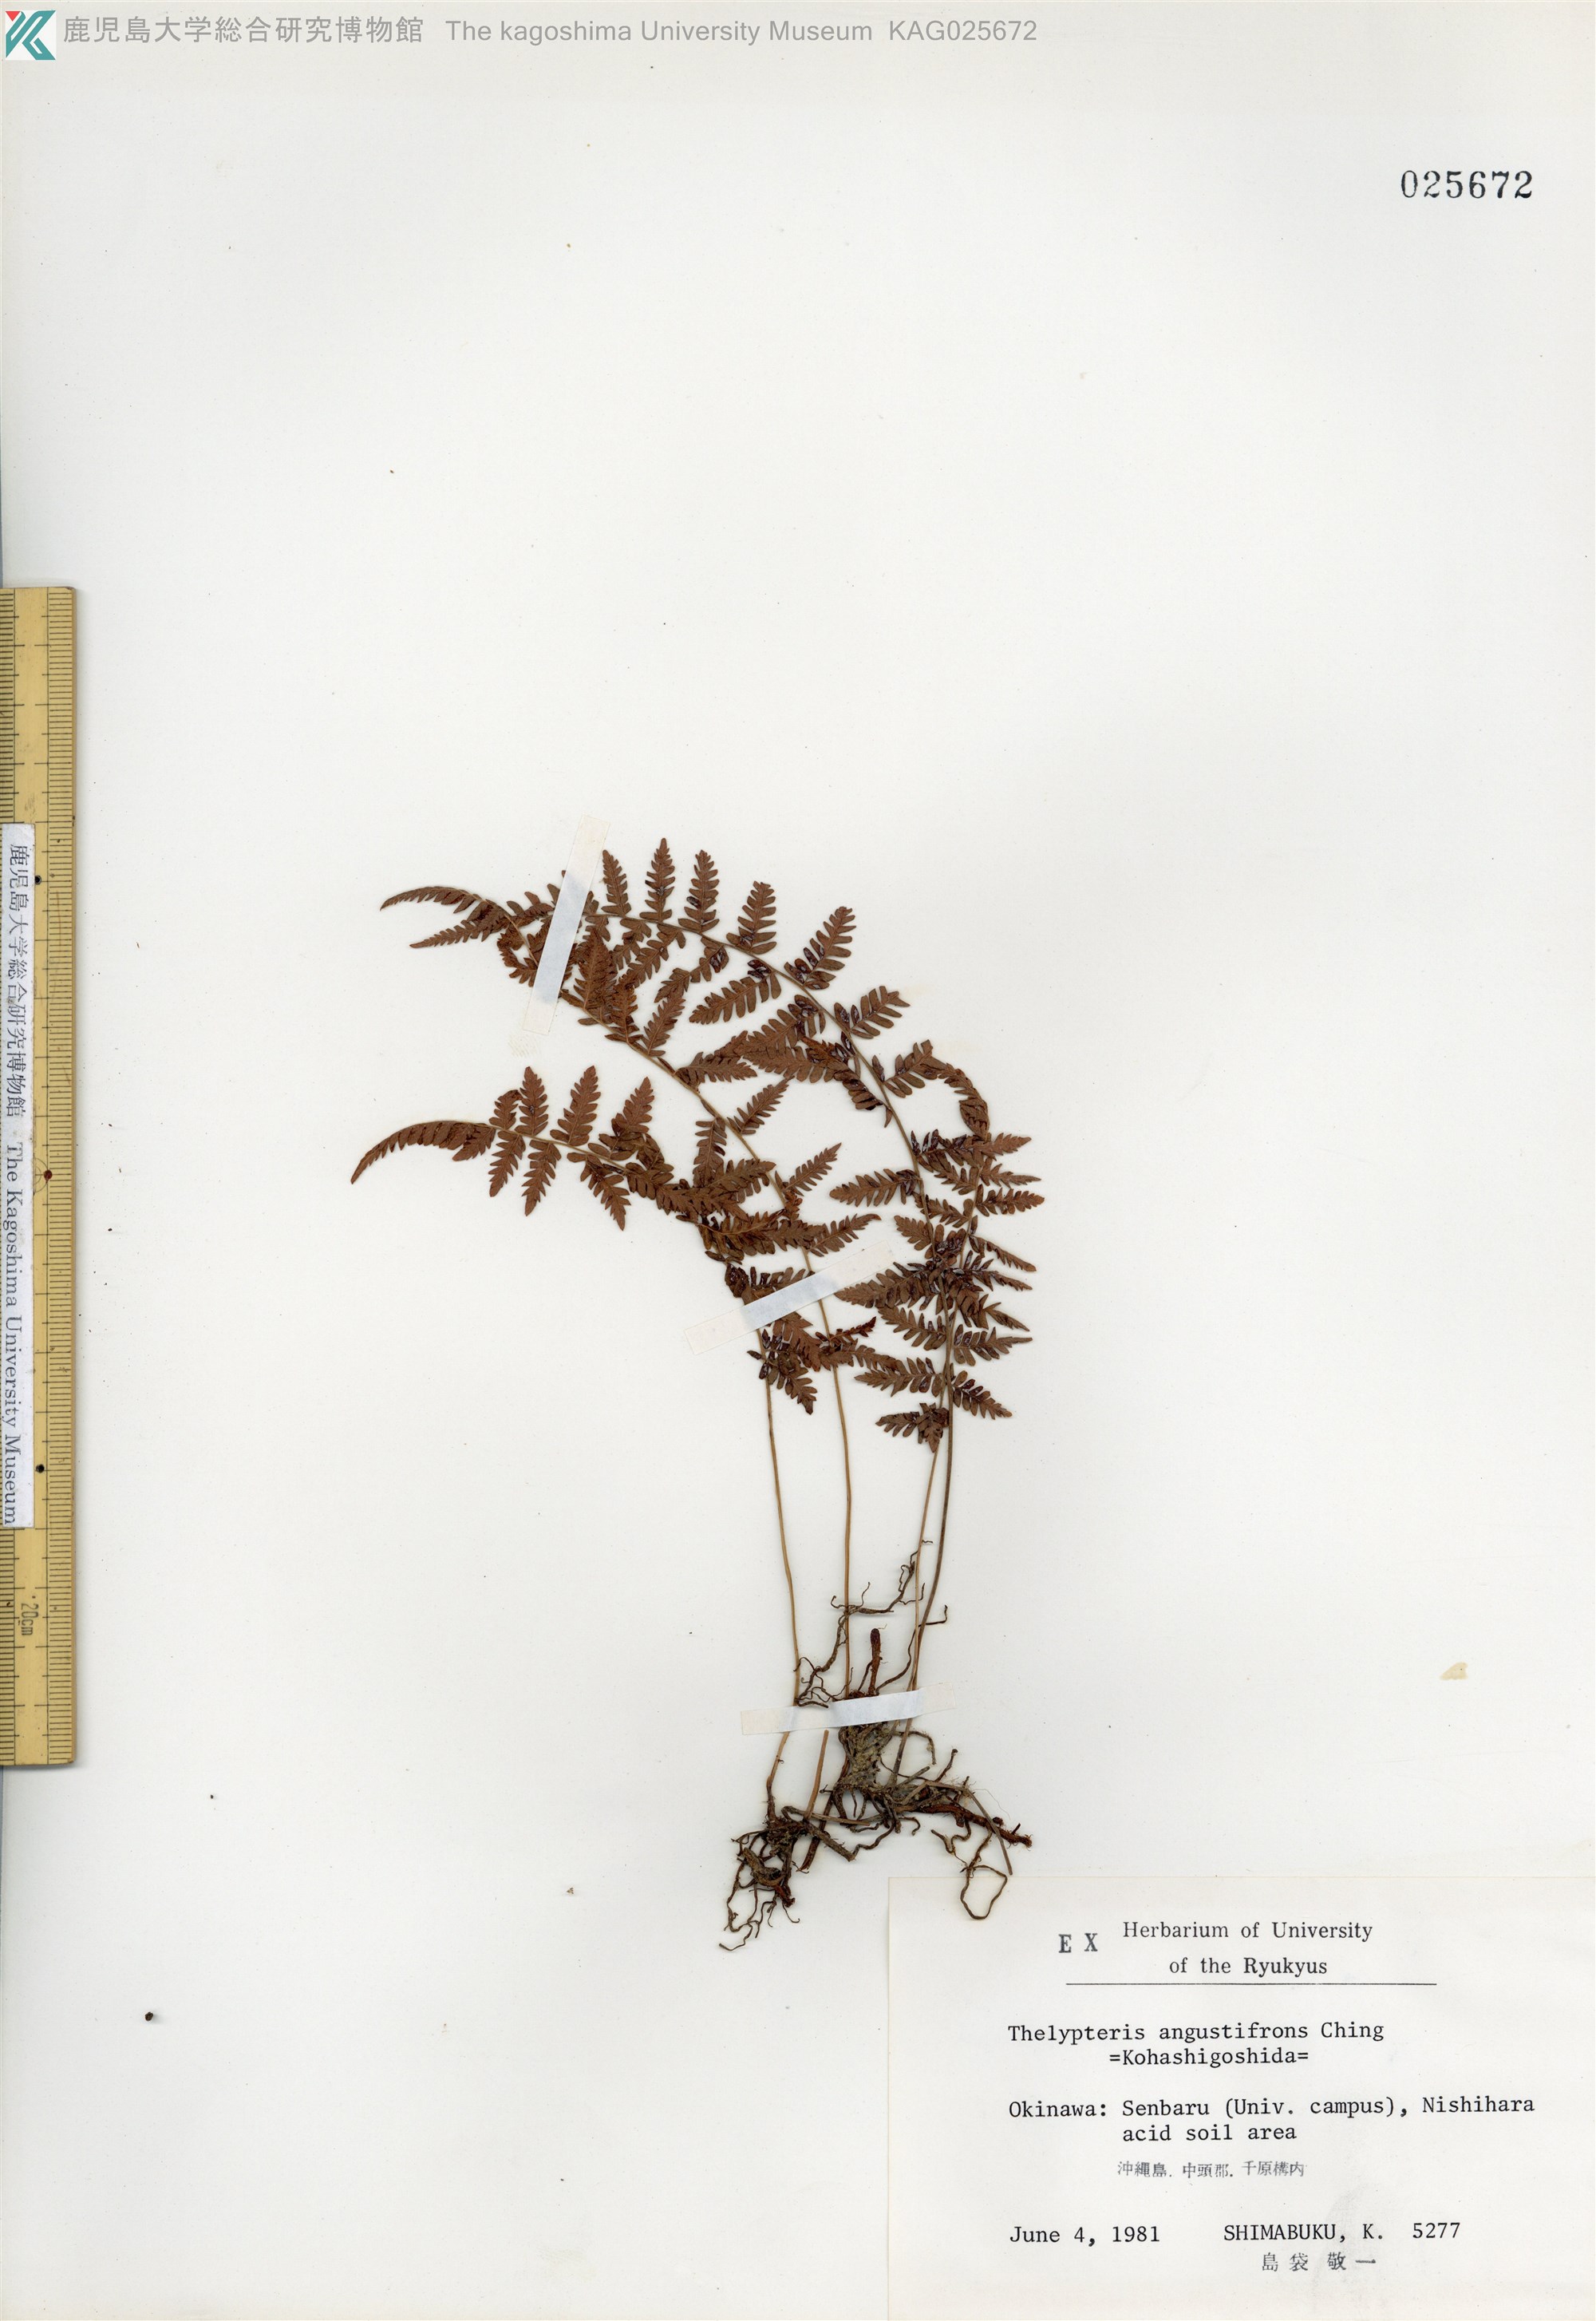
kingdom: Plantae
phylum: Tracheophyta
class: Polypodiopsida
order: Polypodiales
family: Thelypteridaceae
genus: Amauropelta
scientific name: Amauropelta angustifrons
